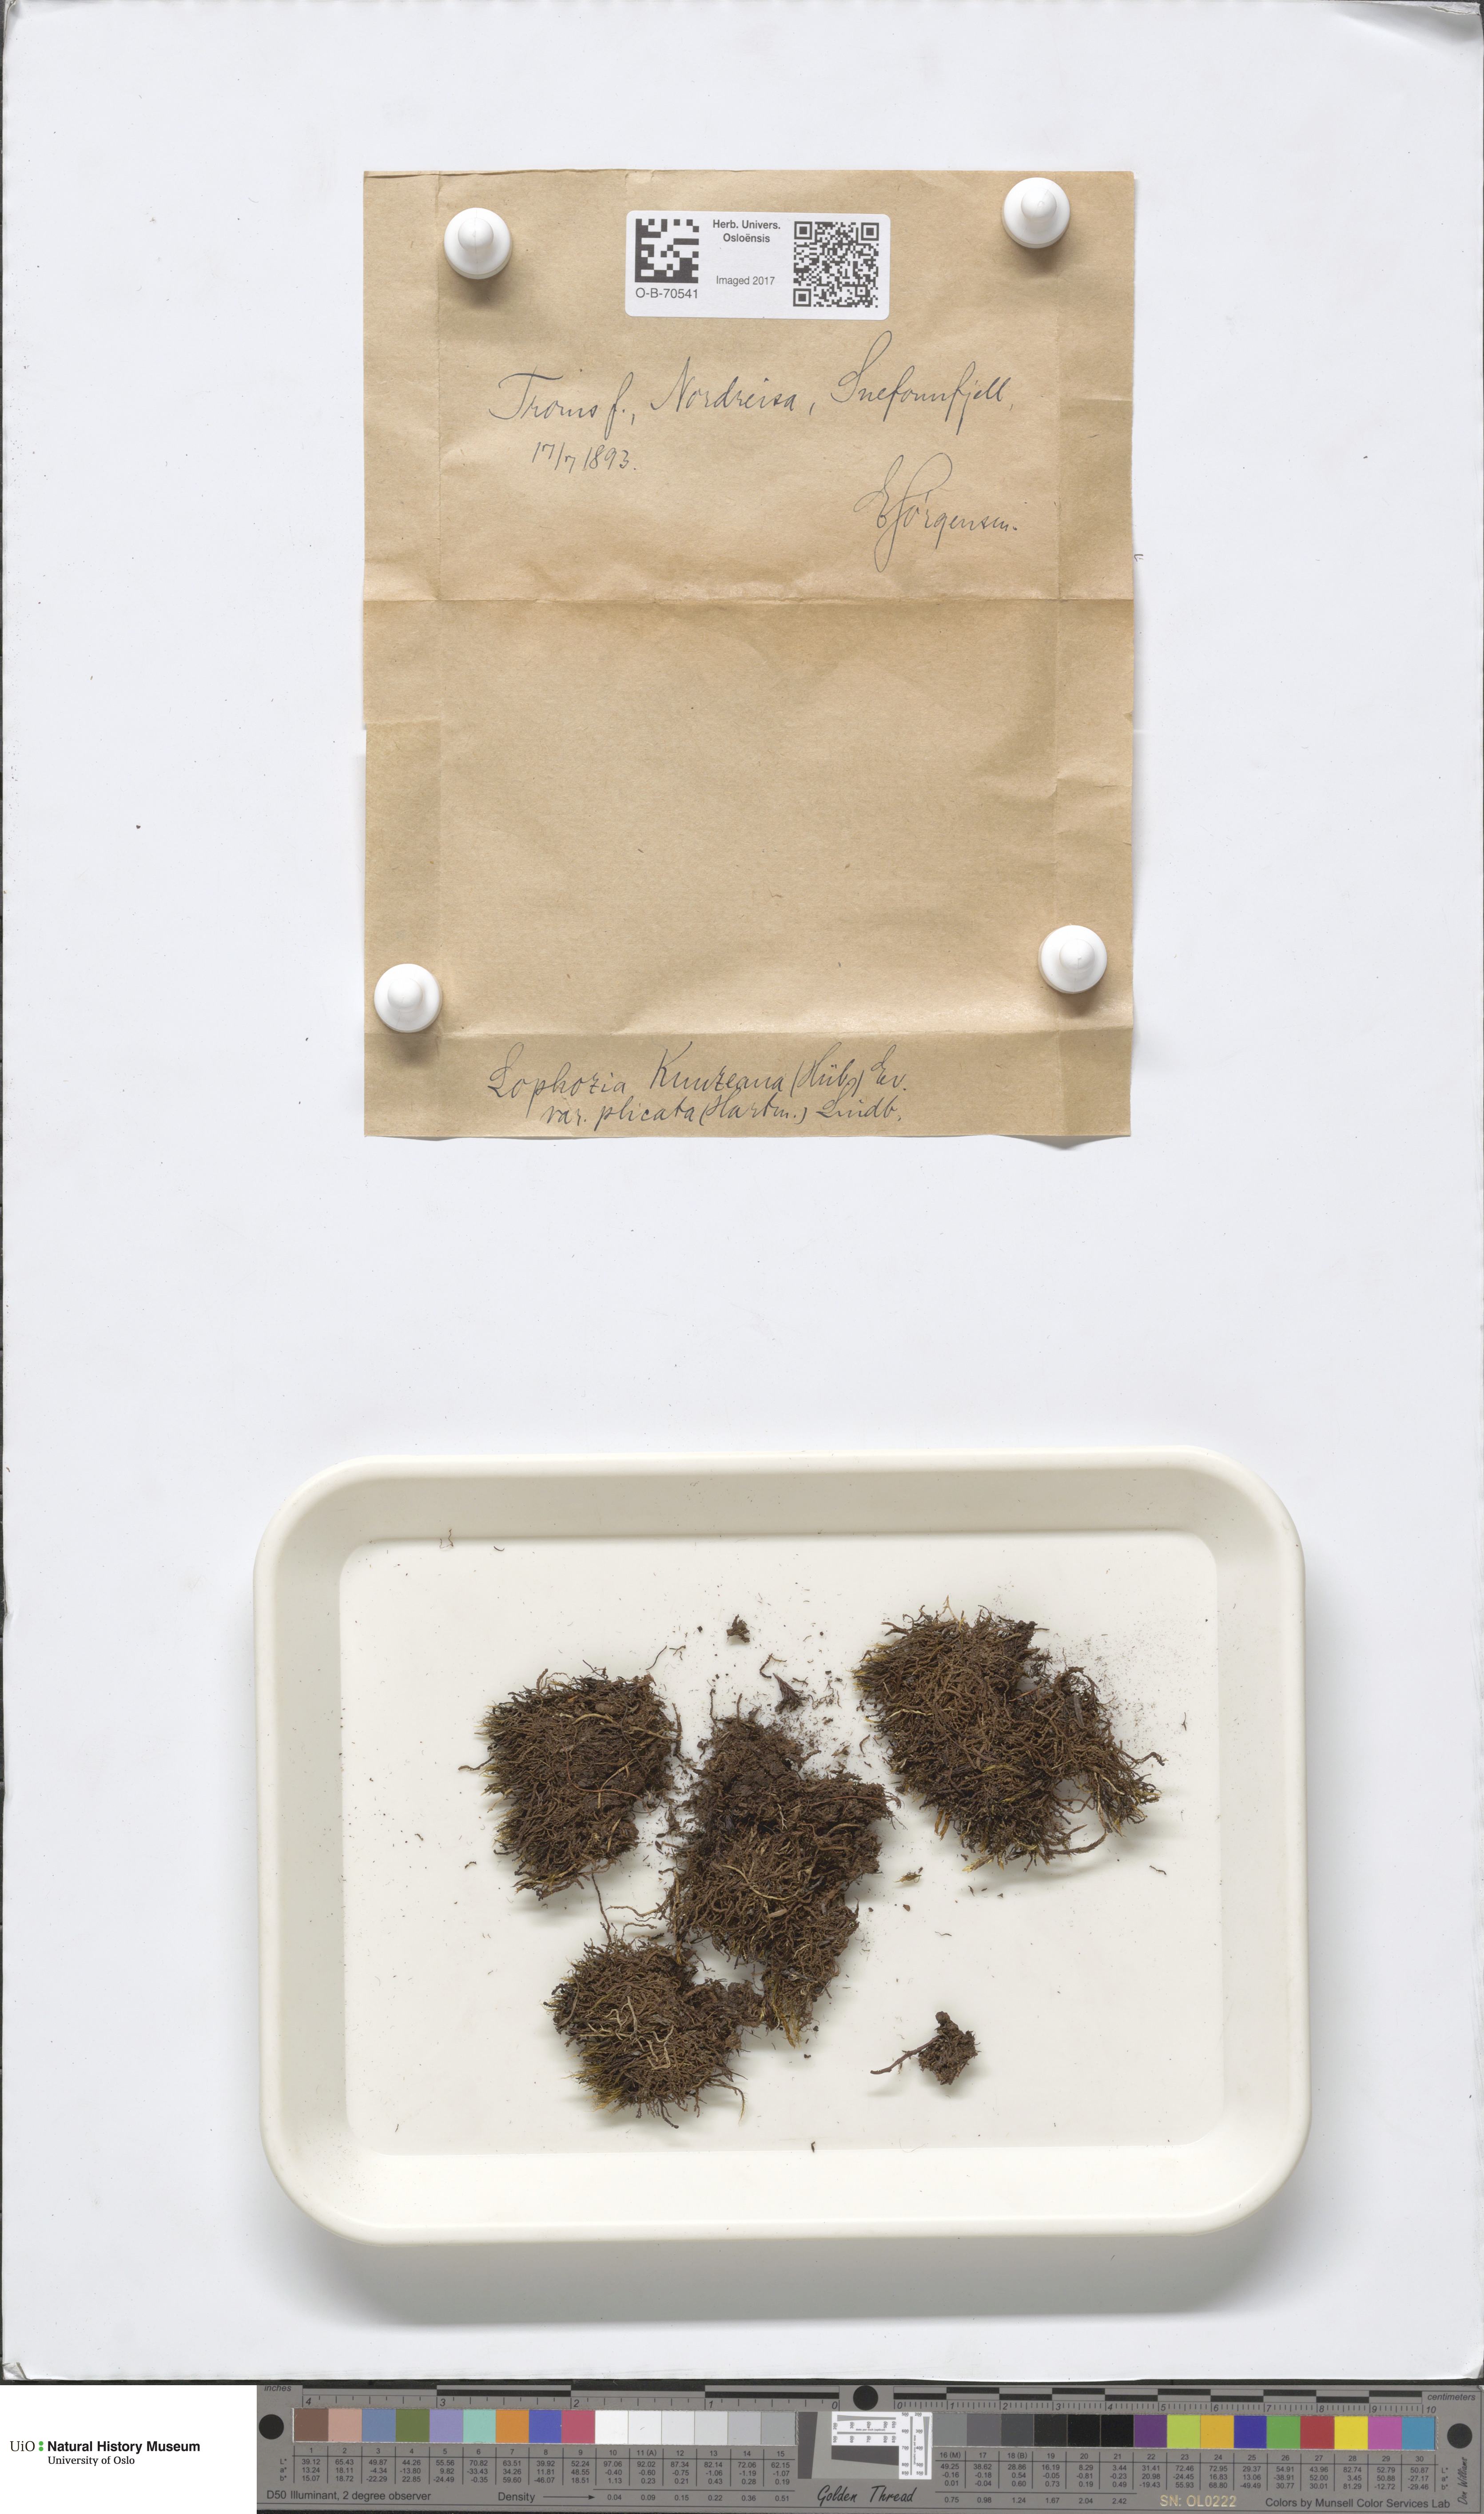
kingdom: Plantae
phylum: Marchantiophyta
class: Jungermanniopsida
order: Jungermanniales
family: Anastrophyllaceae
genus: Schljakovia
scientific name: Schljakovia kunzeana
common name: Kunze's pawwort
